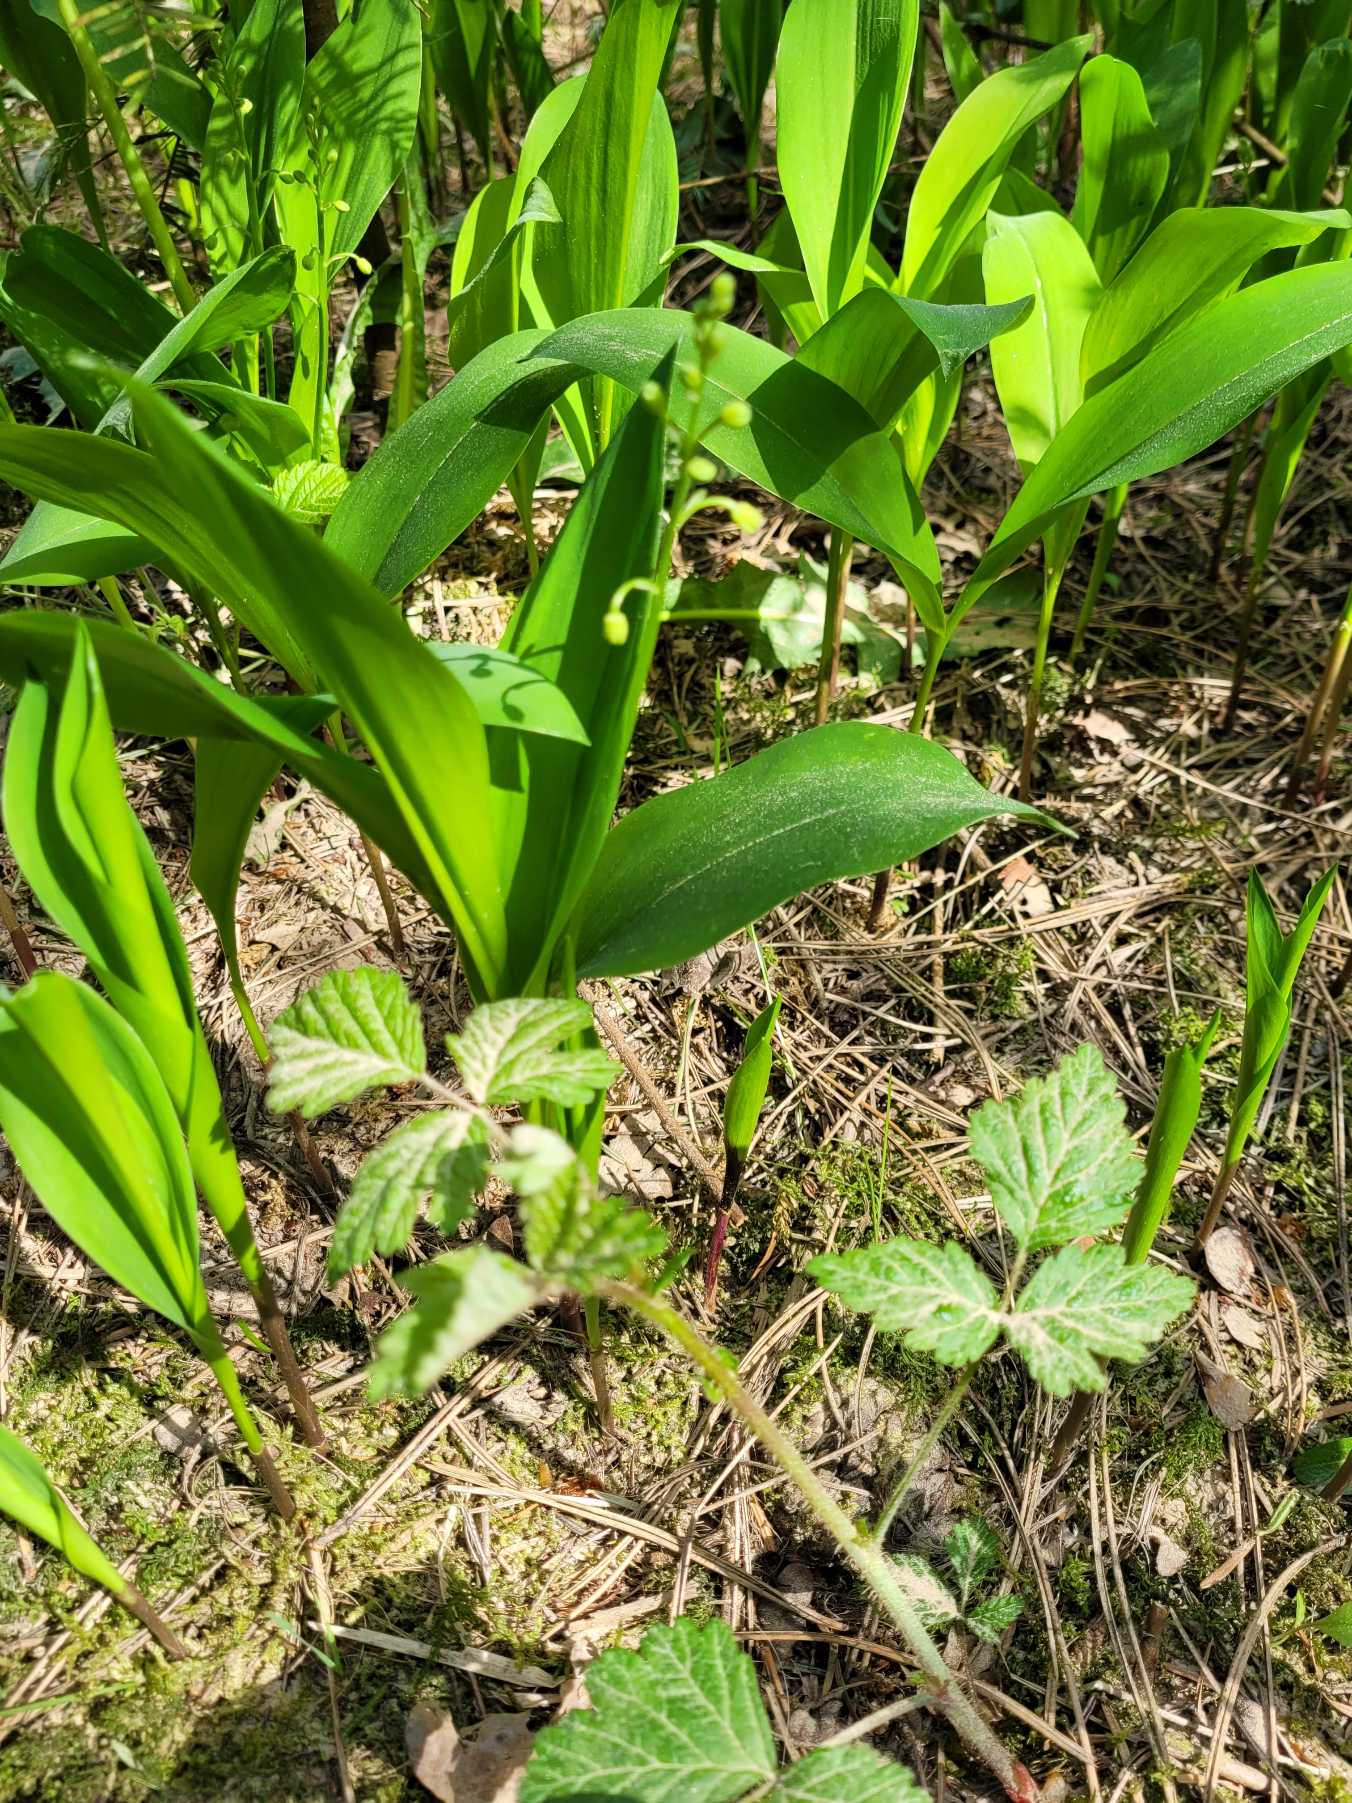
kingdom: Plantae
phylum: Tracheophyta
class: Liliopsida
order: Asparagales
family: Asparagaceae
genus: Convallaria
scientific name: Convallaria majalis
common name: Liljekonval
